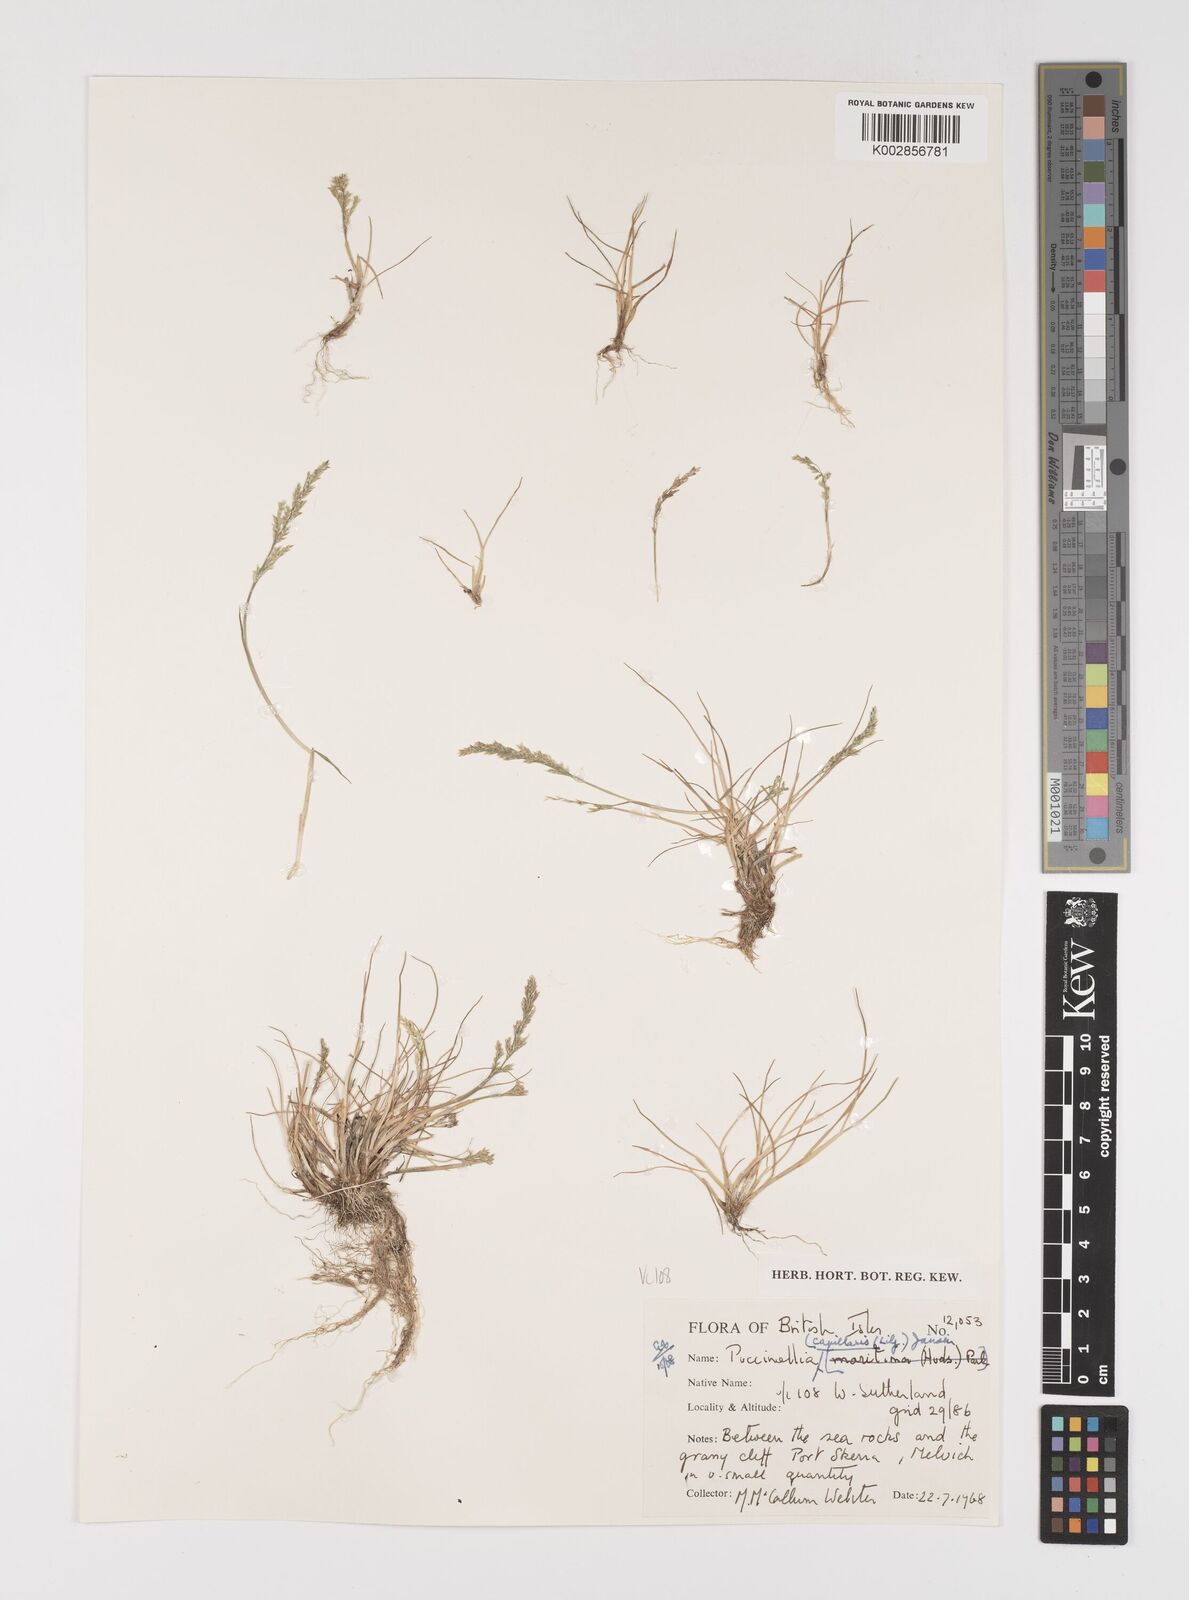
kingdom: Plantae
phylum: Tracheophyta
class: Liliopsida
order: Poales
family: Poaceae
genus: Puccinellia
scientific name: Puccinellia distans
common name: Weeping alkaligrass
